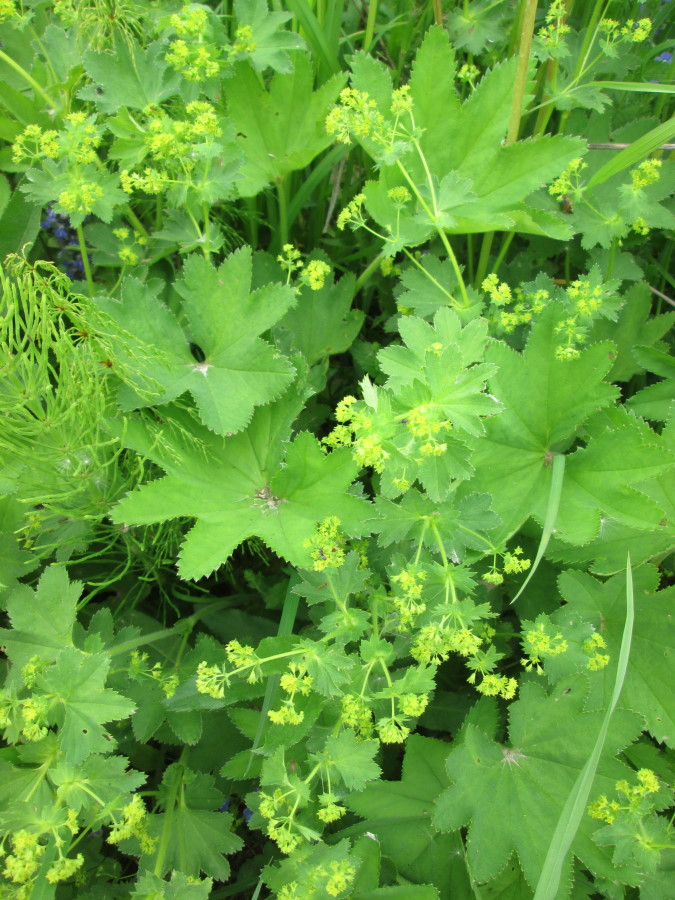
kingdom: Plantae
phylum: Tracheophyta
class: Magnoliopsida
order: Rosales
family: Rosaceae
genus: Alchemilla
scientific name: Alchemilla xanthochlora
